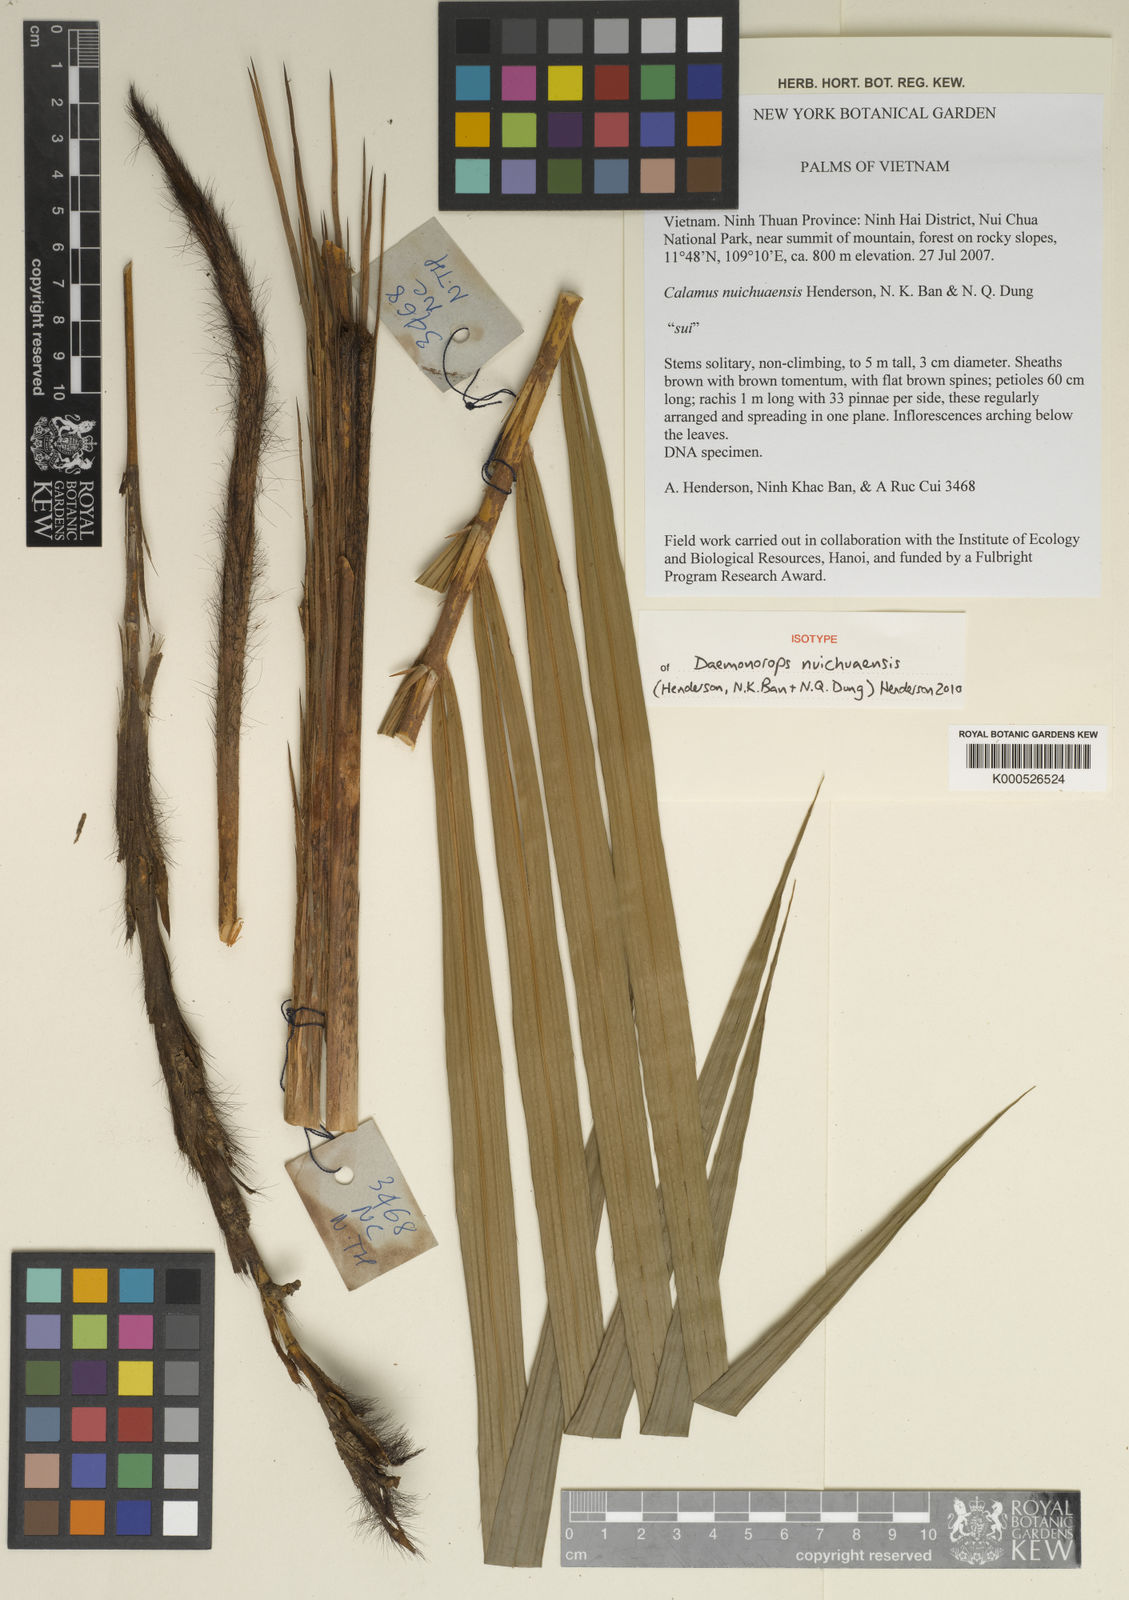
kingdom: Plantae
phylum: Tracheophyta
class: Liliopsida
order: Arecales
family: Arecaceae
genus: Calamus
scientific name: Calamus
